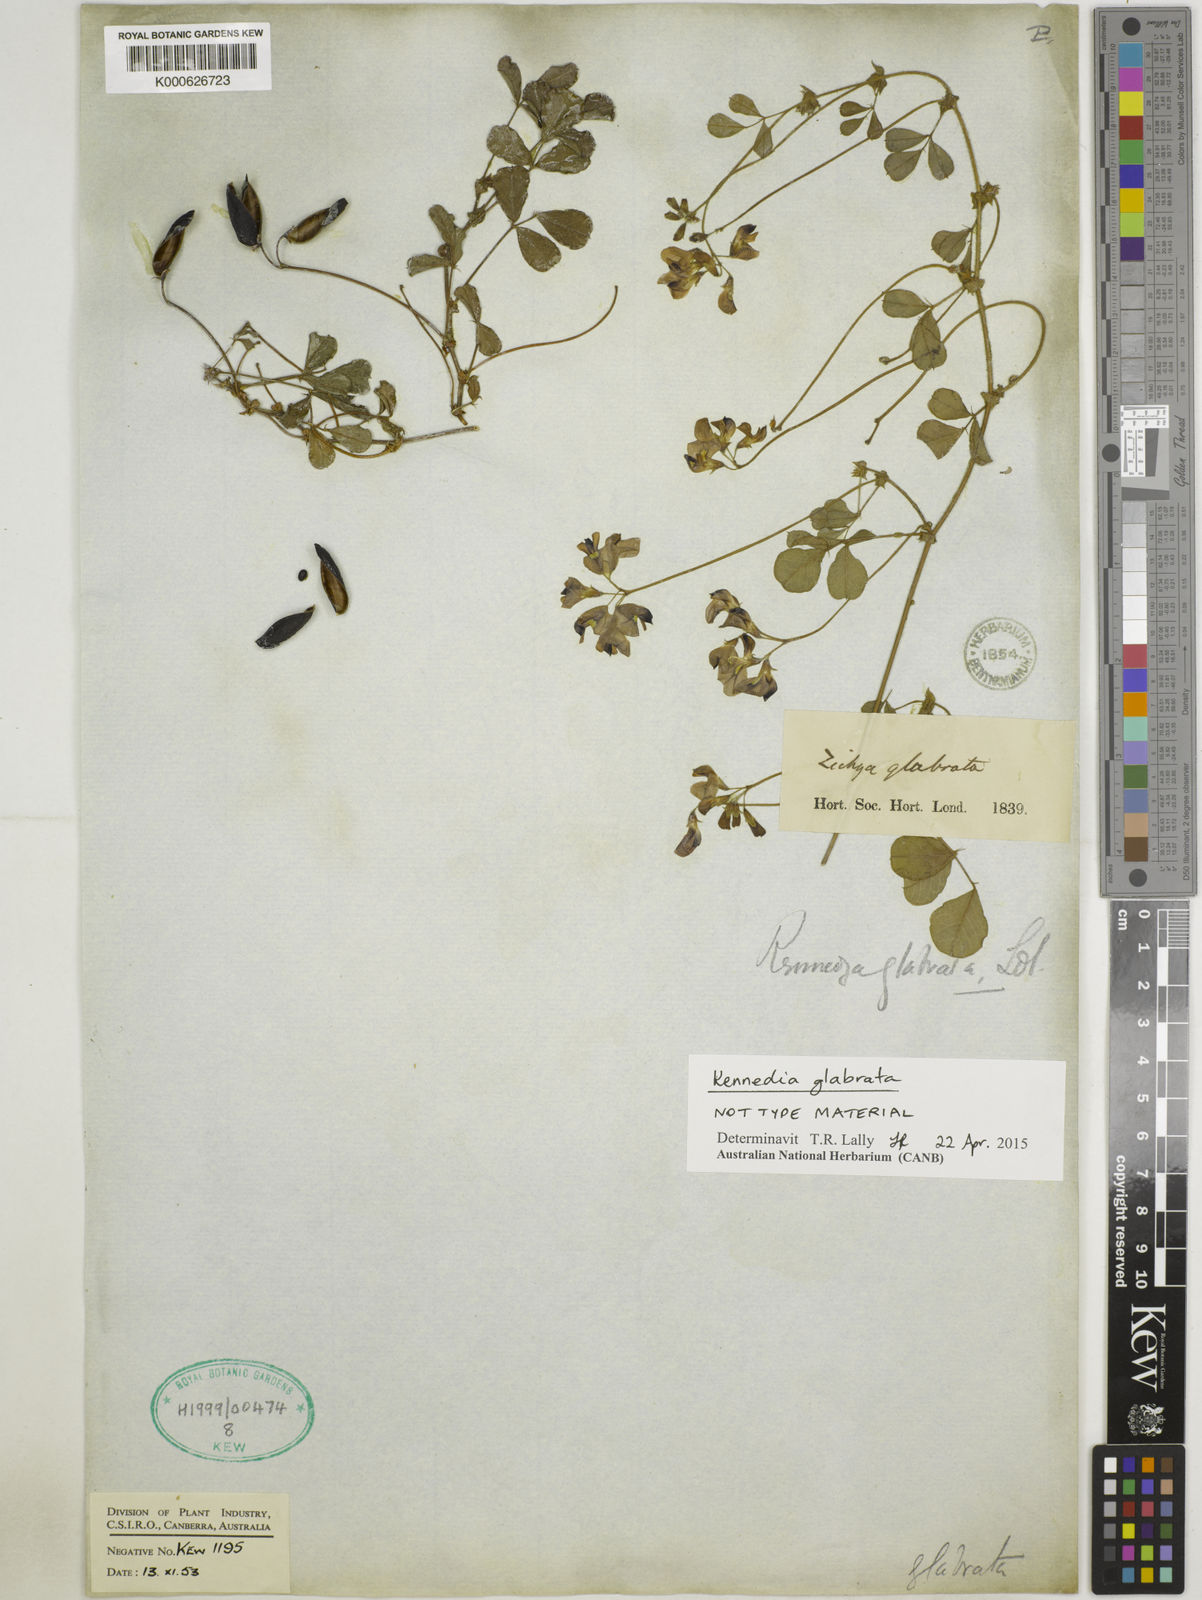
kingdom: Plantae
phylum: Tracheophyta
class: Magnoliopsida
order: Fabales
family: Fabaceae
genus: Kennedia
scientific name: Kennedia glabrata
